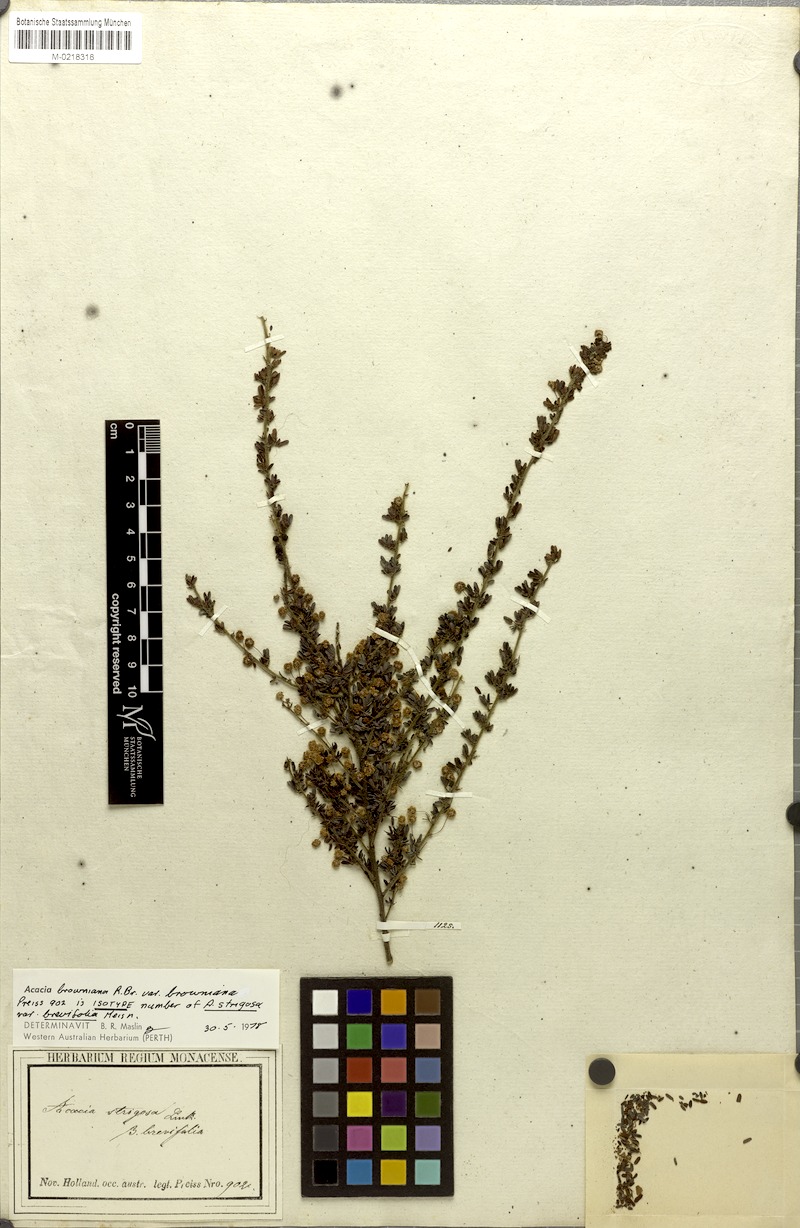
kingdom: Plantae
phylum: Tracheophyta
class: Magnoliopsida
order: Fabales
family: Fabaceae
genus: Acacia
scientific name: Acacia browniana
